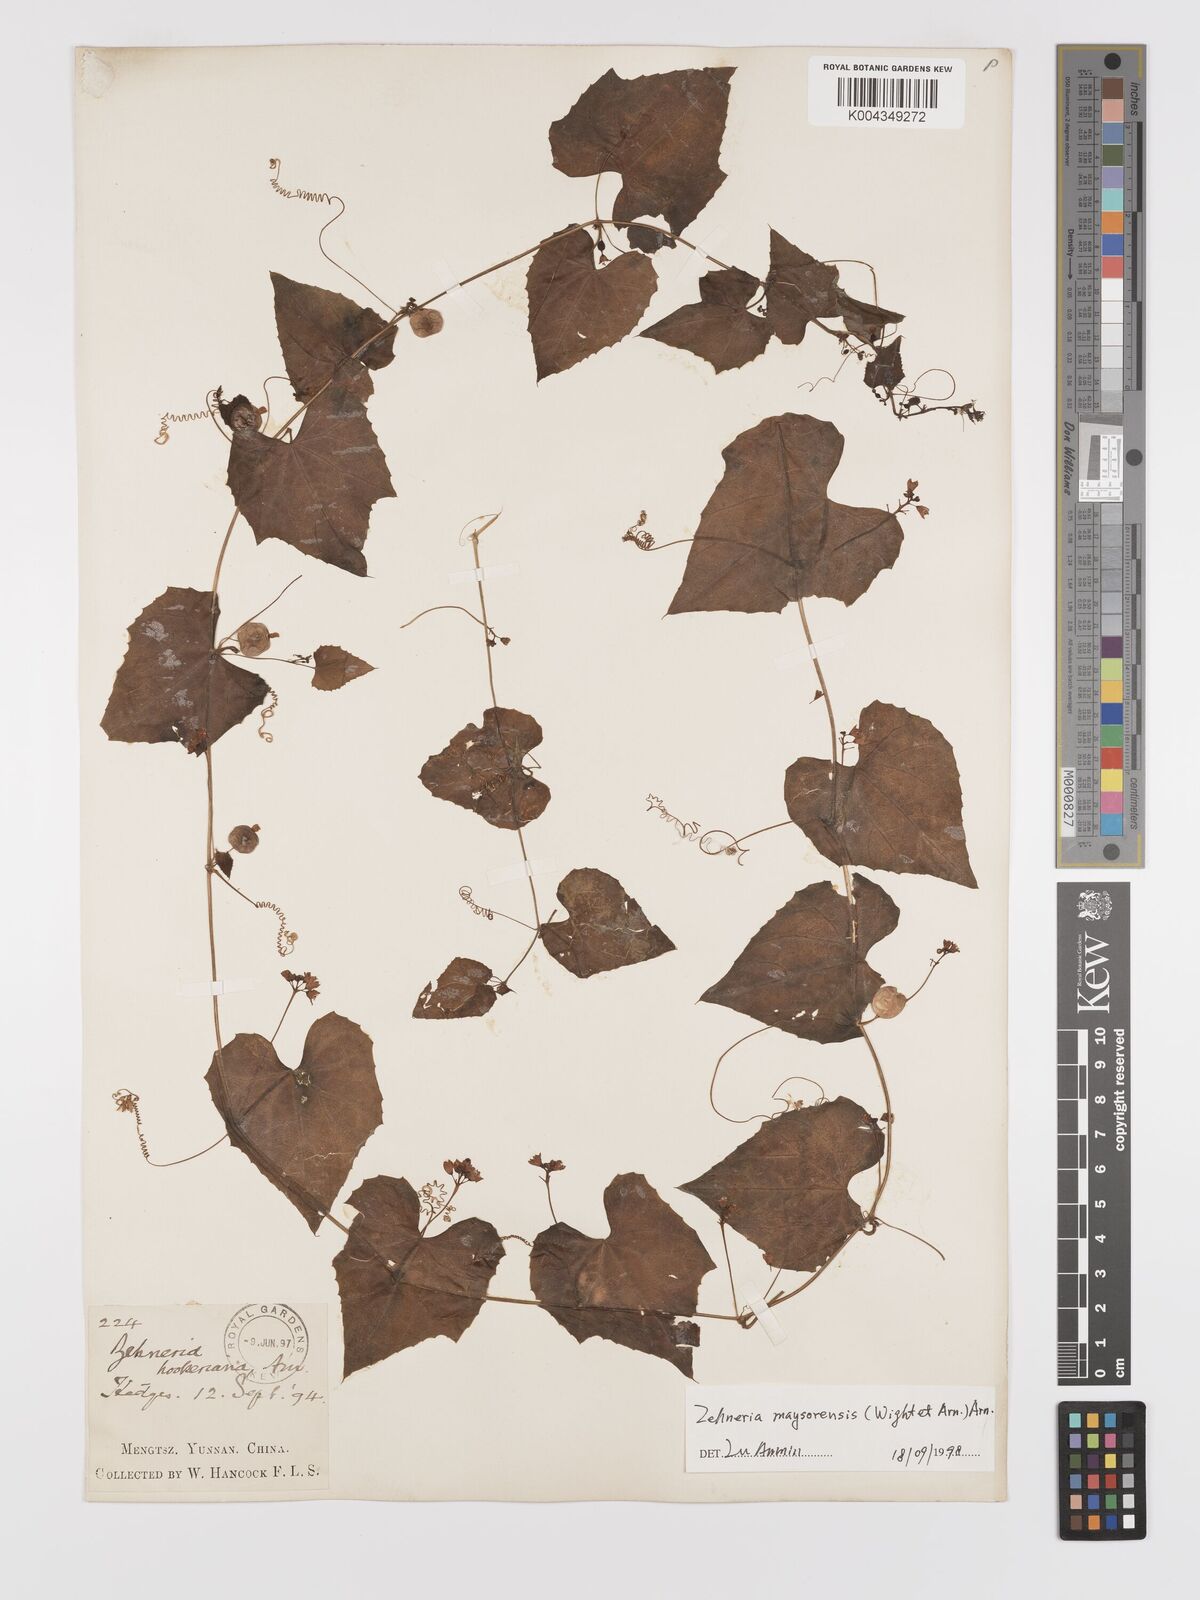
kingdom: Plantae
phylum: Tracheophyta
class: Magnoliopsida
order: Cucurbitales
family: Cucurbitaceae
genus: Zehneria
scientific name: Zehneria maysorensis
